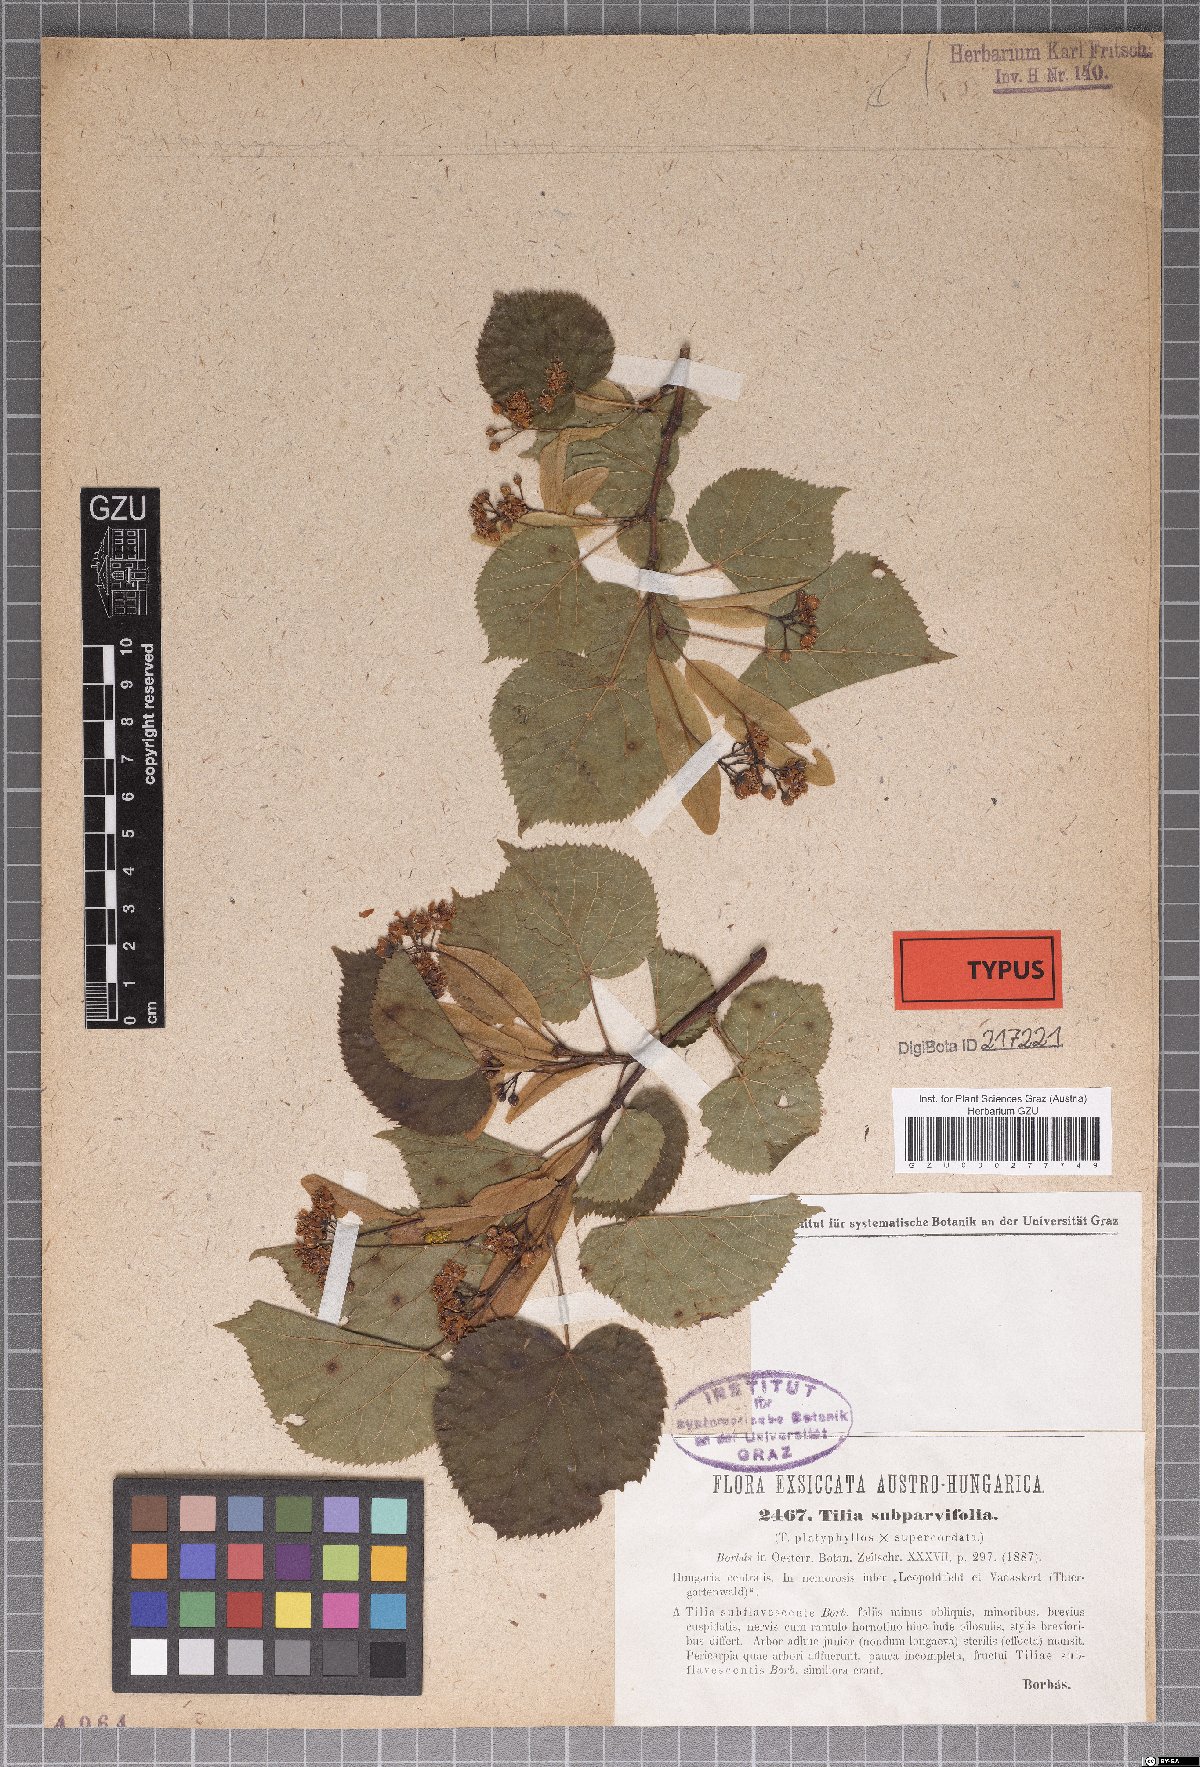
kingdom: Plantae
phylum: Tracheophyta
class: Magnoliopsida
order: Malvales
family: Malvaceae
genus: Tilia
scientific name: Tilia europaea
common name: European linden
